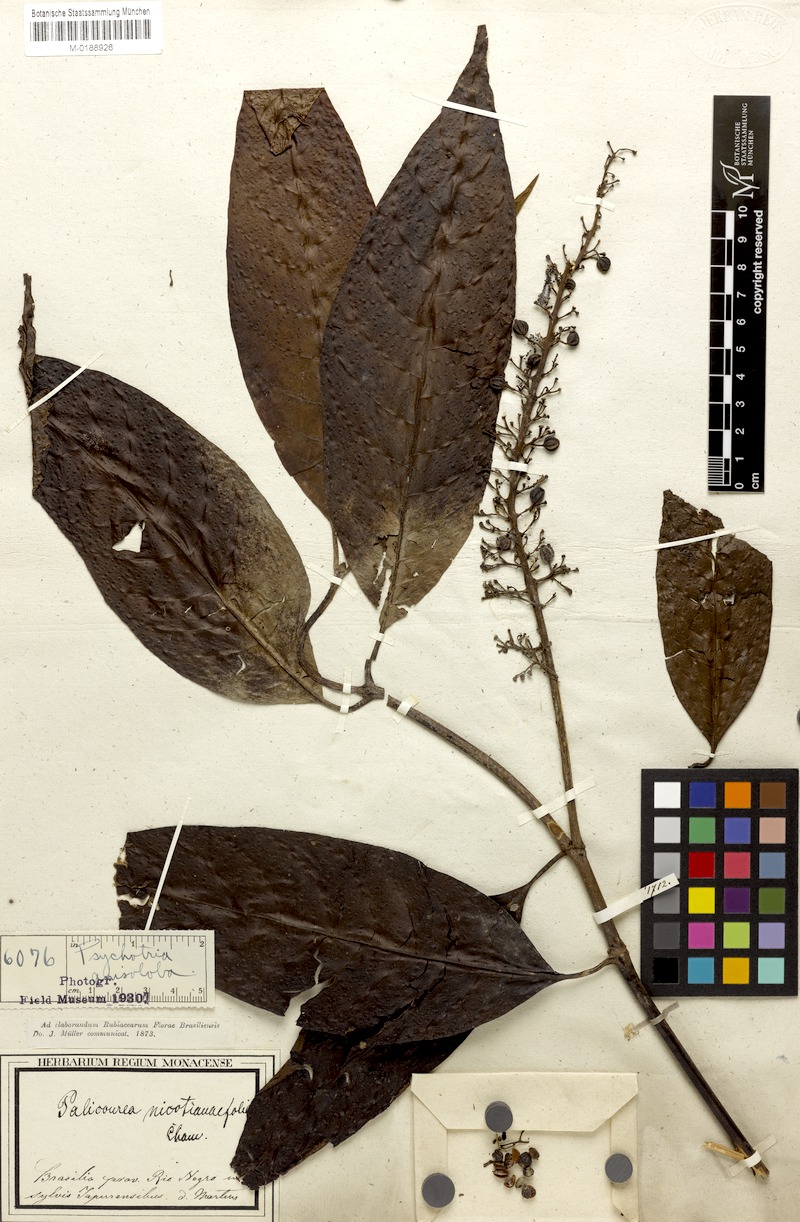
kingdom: Plantae
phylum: Tracheophyta
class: Magnoliopsida
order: Gentianales
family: Rubiaceae
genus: Palicourea
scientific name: Palicourea anisoloba
